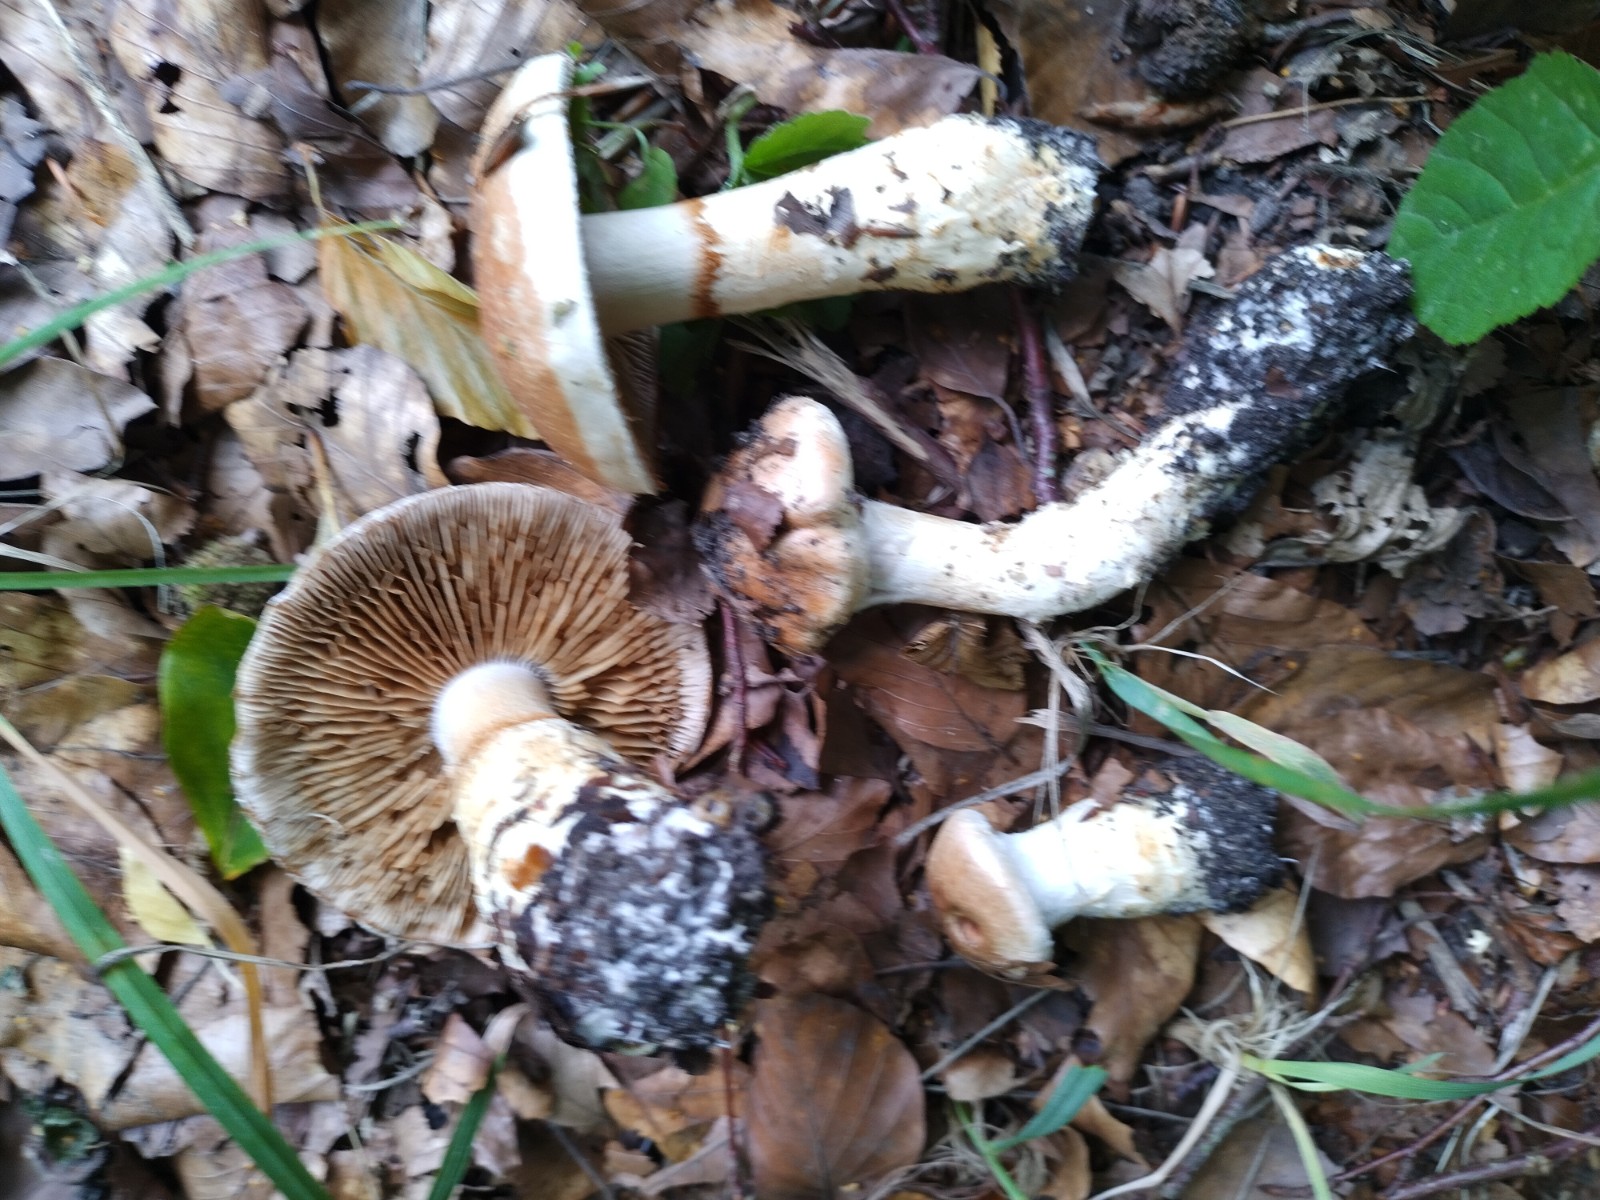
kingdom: Fungi
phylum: Basidiomycota
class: Agaricomycetes
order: Agaricales
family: Cortinariaceae
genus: Phlegmacium
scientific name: Phlegmacium vulpinum
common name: ringbæltet slørhat
